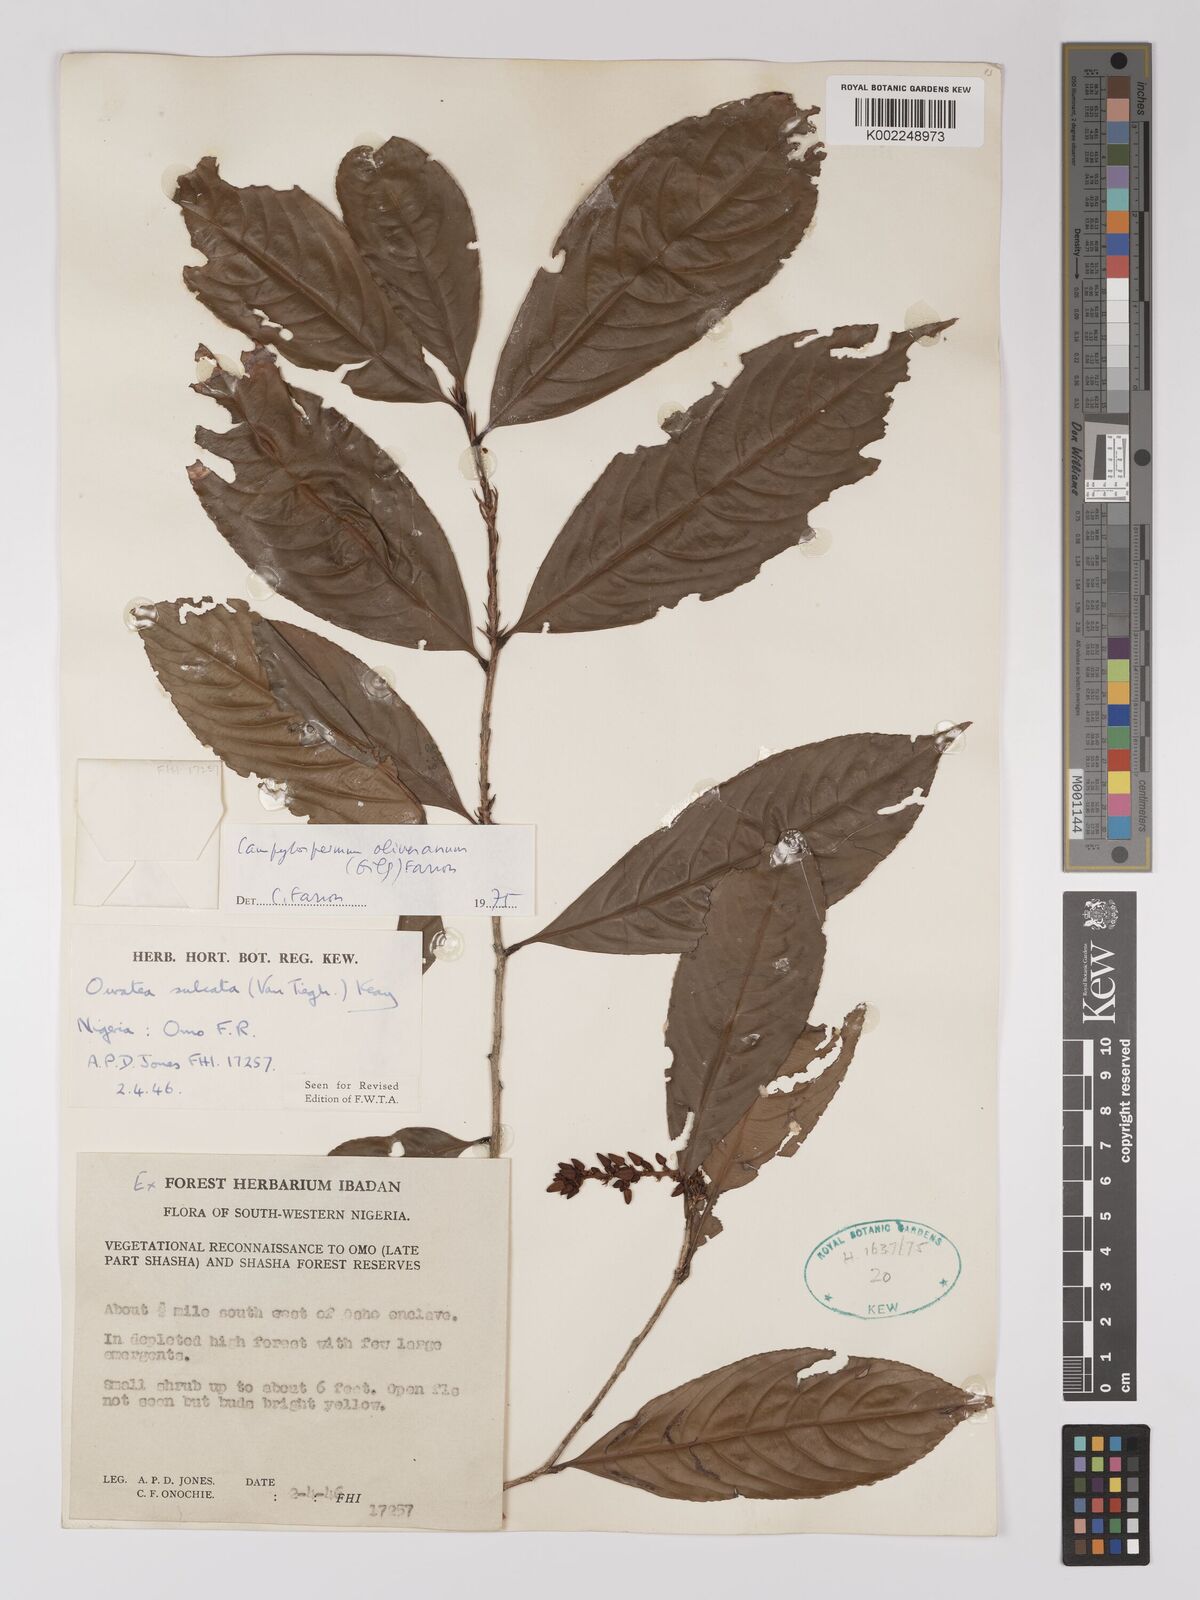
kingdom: Plantae
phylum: Tracheophyta
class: Magnoliopsida
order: Malpighiales
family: Ochnaceae
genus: Campylospermum
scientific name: Campylospermum oliverianum
